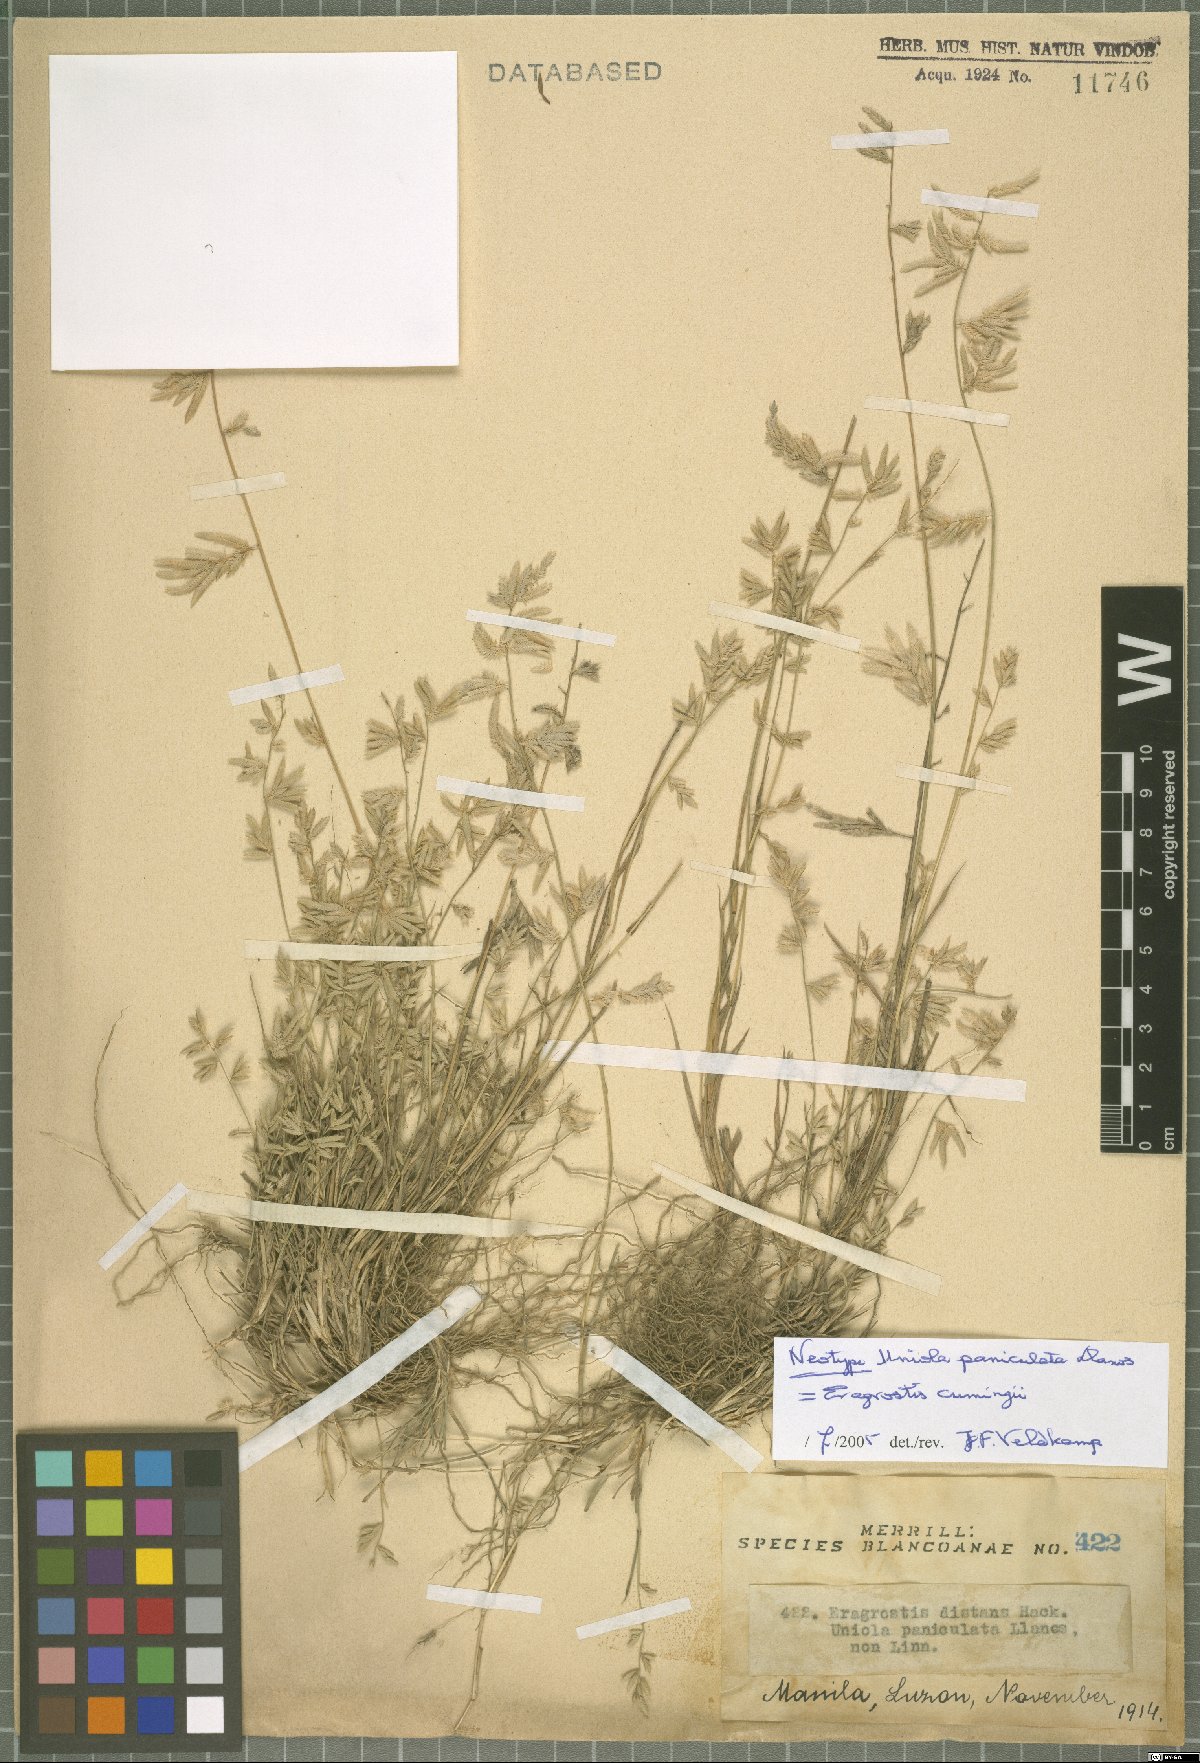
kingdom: Plantae
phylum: Tracheophyta
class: Liliopsida
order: Poales
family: Poaceae
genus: Eragrostis
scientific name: Eragrostis cumingii
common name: Cuming's lovegrass
